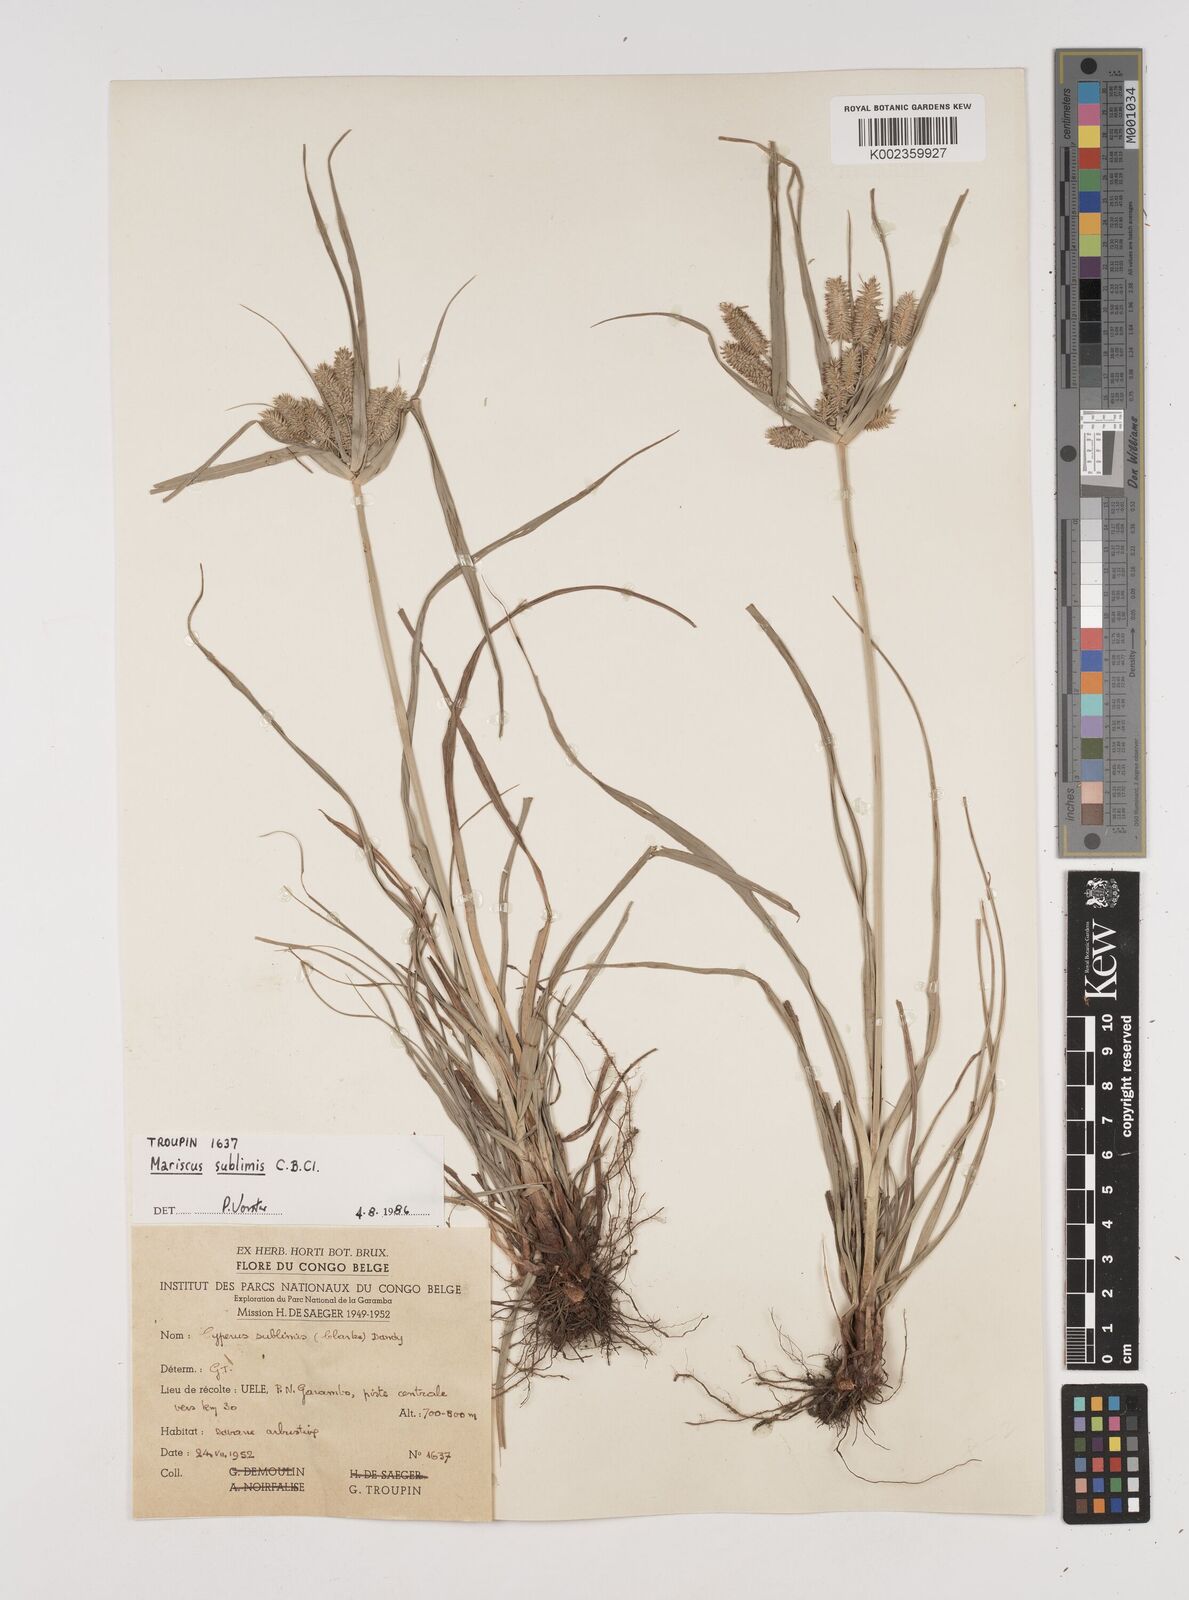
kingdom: Plantae
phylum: Tracheophyta
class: Liliopsida
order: Poales
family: Cyperaceae
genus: Cyperus
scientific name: Cyperus cyperoides
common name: Pacific island flat sedge
